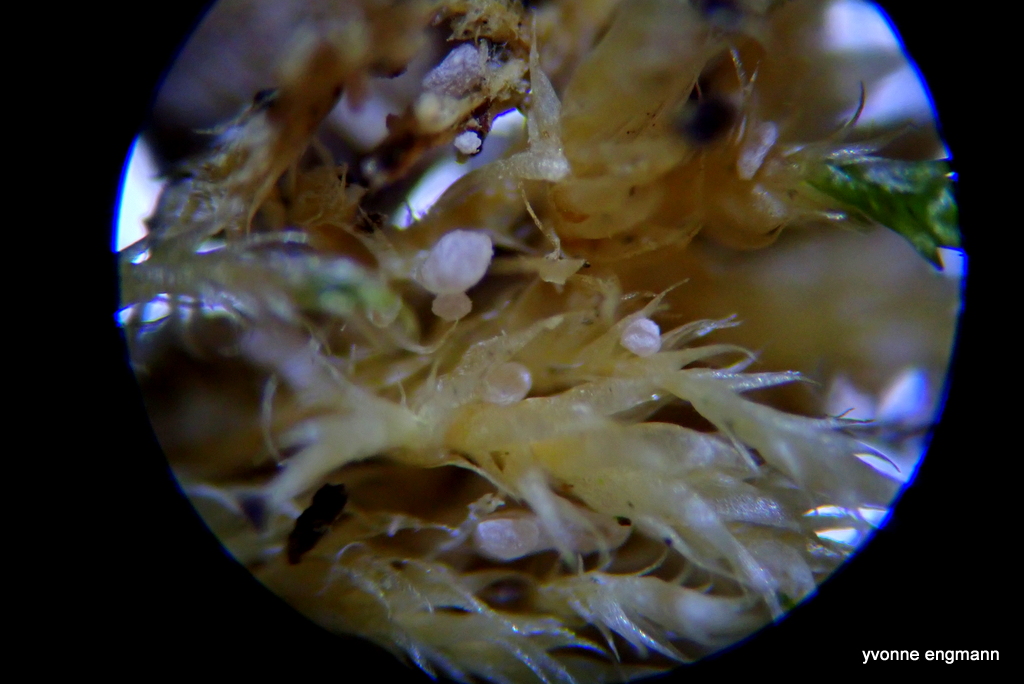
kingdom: Plantae
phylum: Bryophyta
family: Agaricomycetidae
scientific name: Agaricomycetidae
